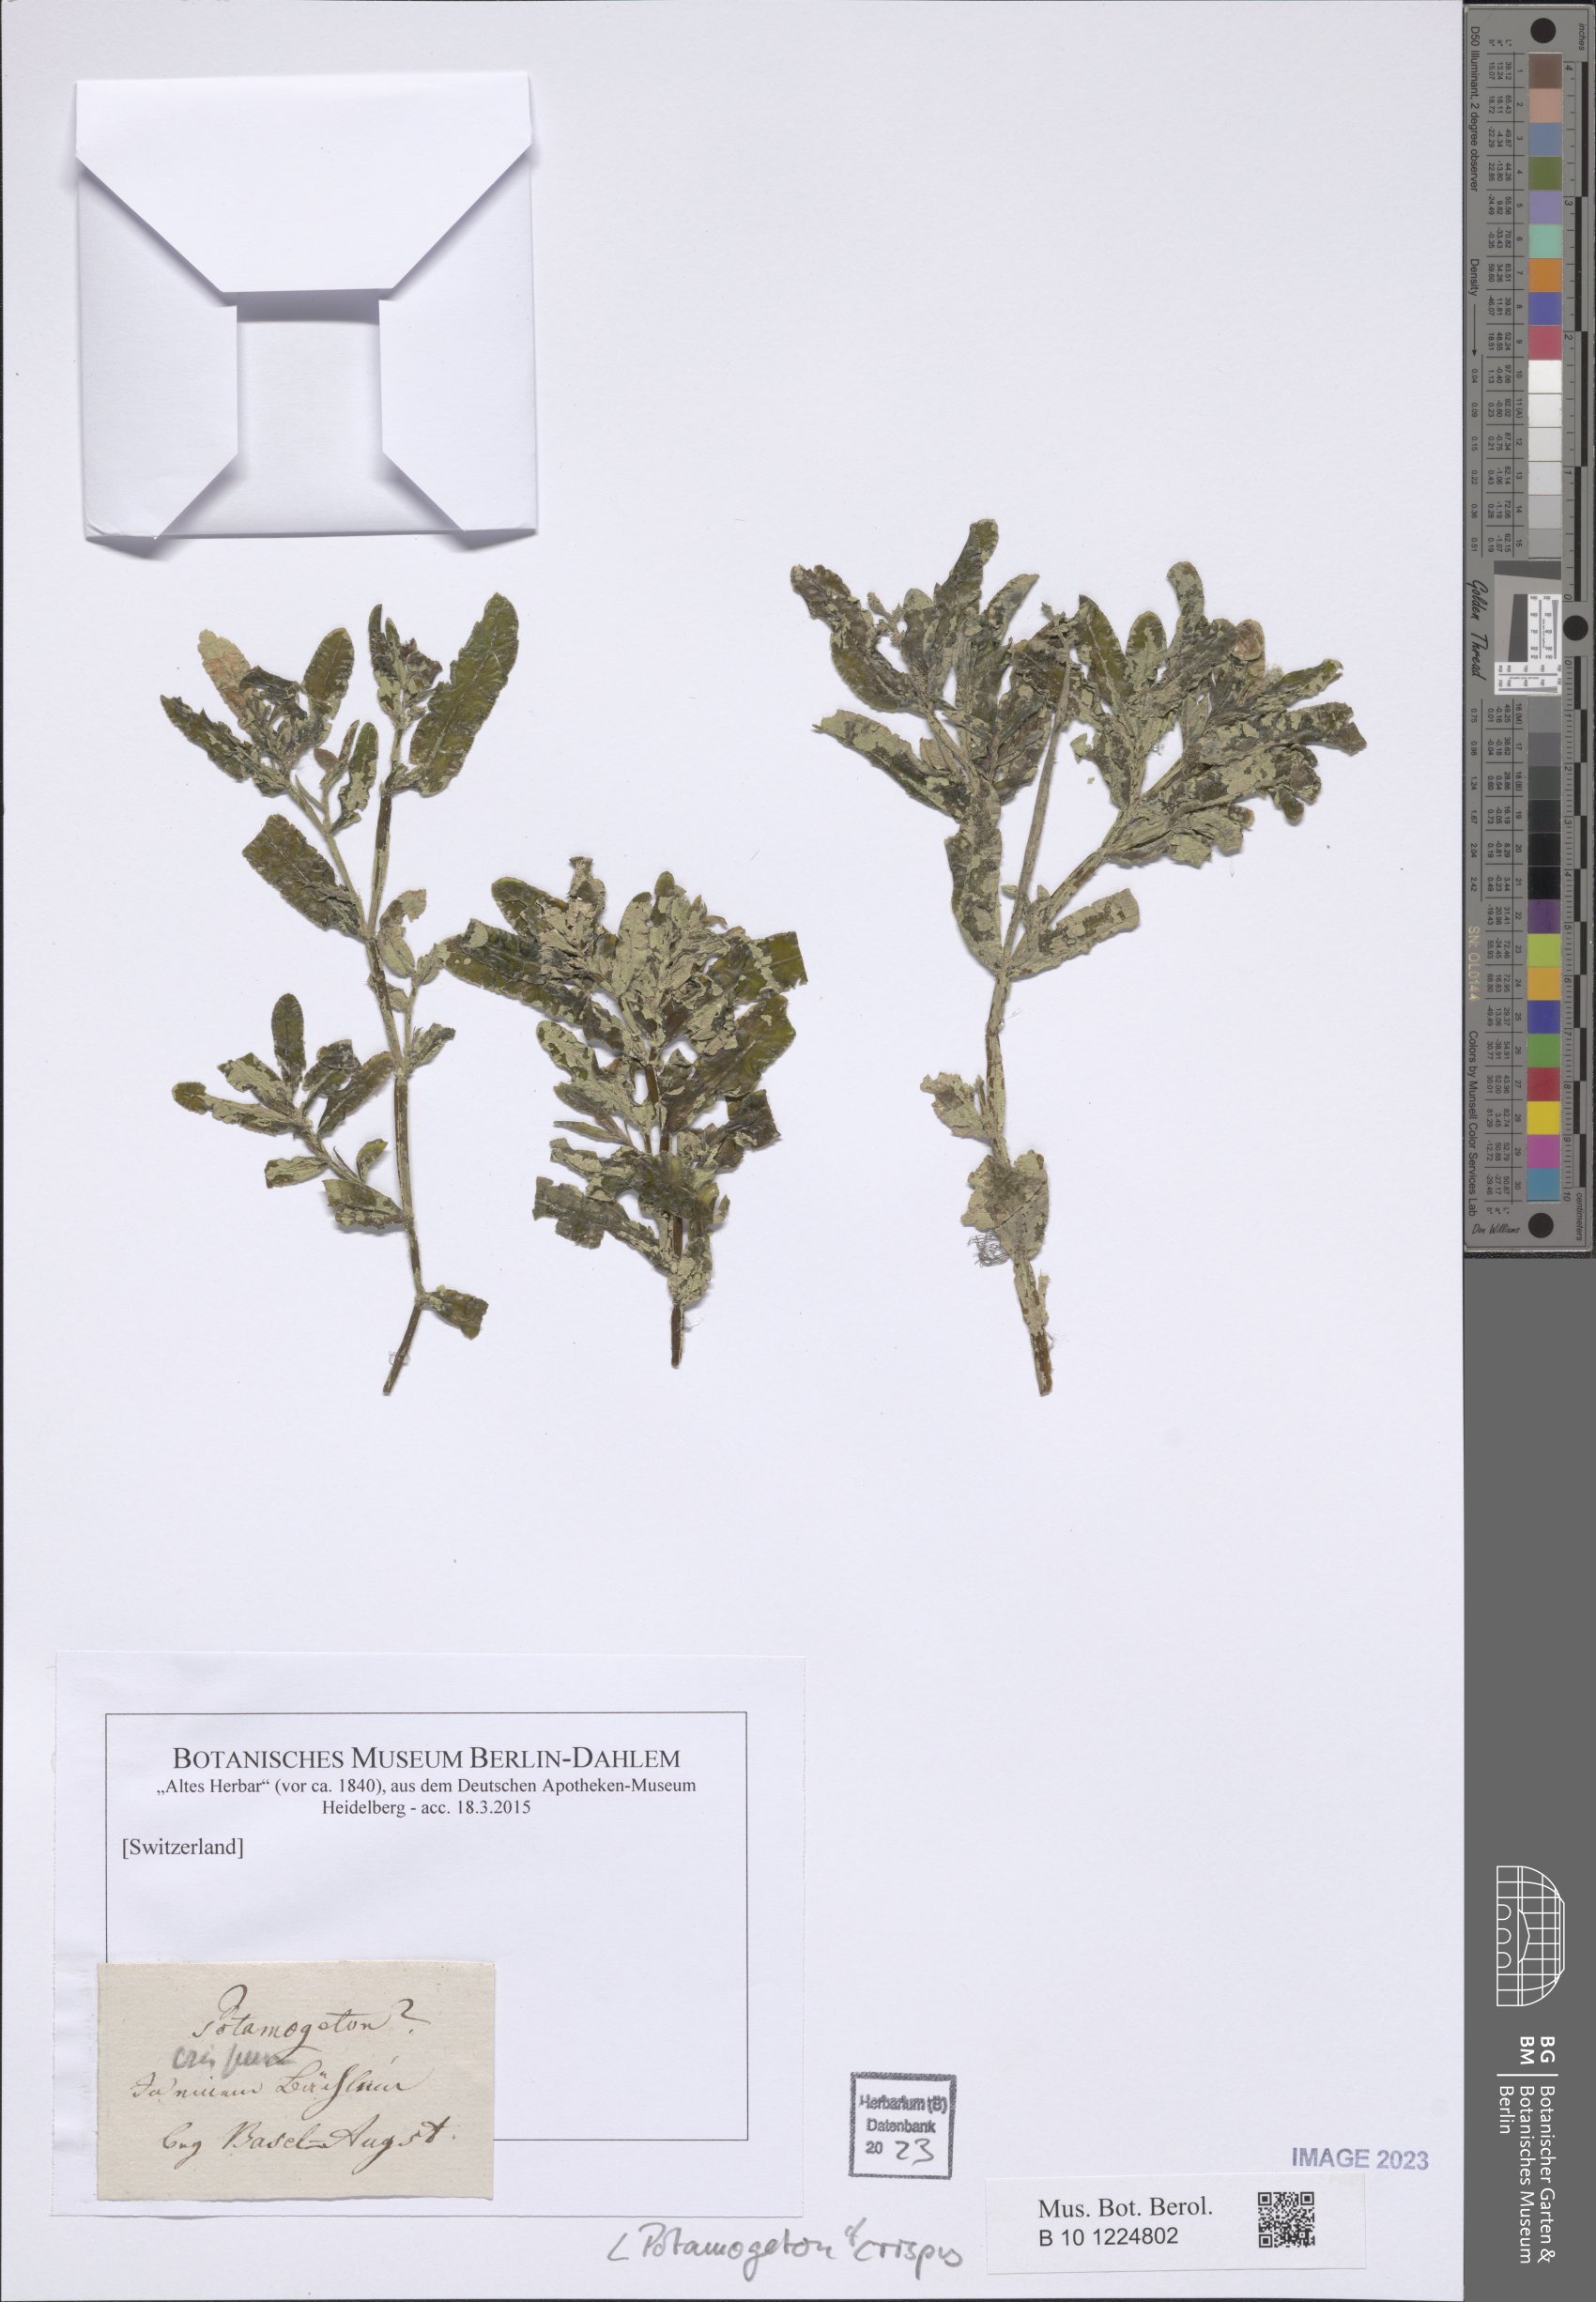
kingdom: Plantae
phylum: Tracheophyta
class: Liliopsida
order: Alismatales
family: Potamogetonaceae
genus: Potamogeton
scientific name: Potamogeton crispus
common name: Curled pondweed
